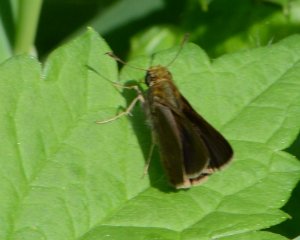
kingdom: Animalia
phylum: Arthropoda
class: Insecta
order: Lepidoptera
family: Hesperiidae
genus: Euphyes
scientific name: Euphyes vestris
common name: Dun Skipper
